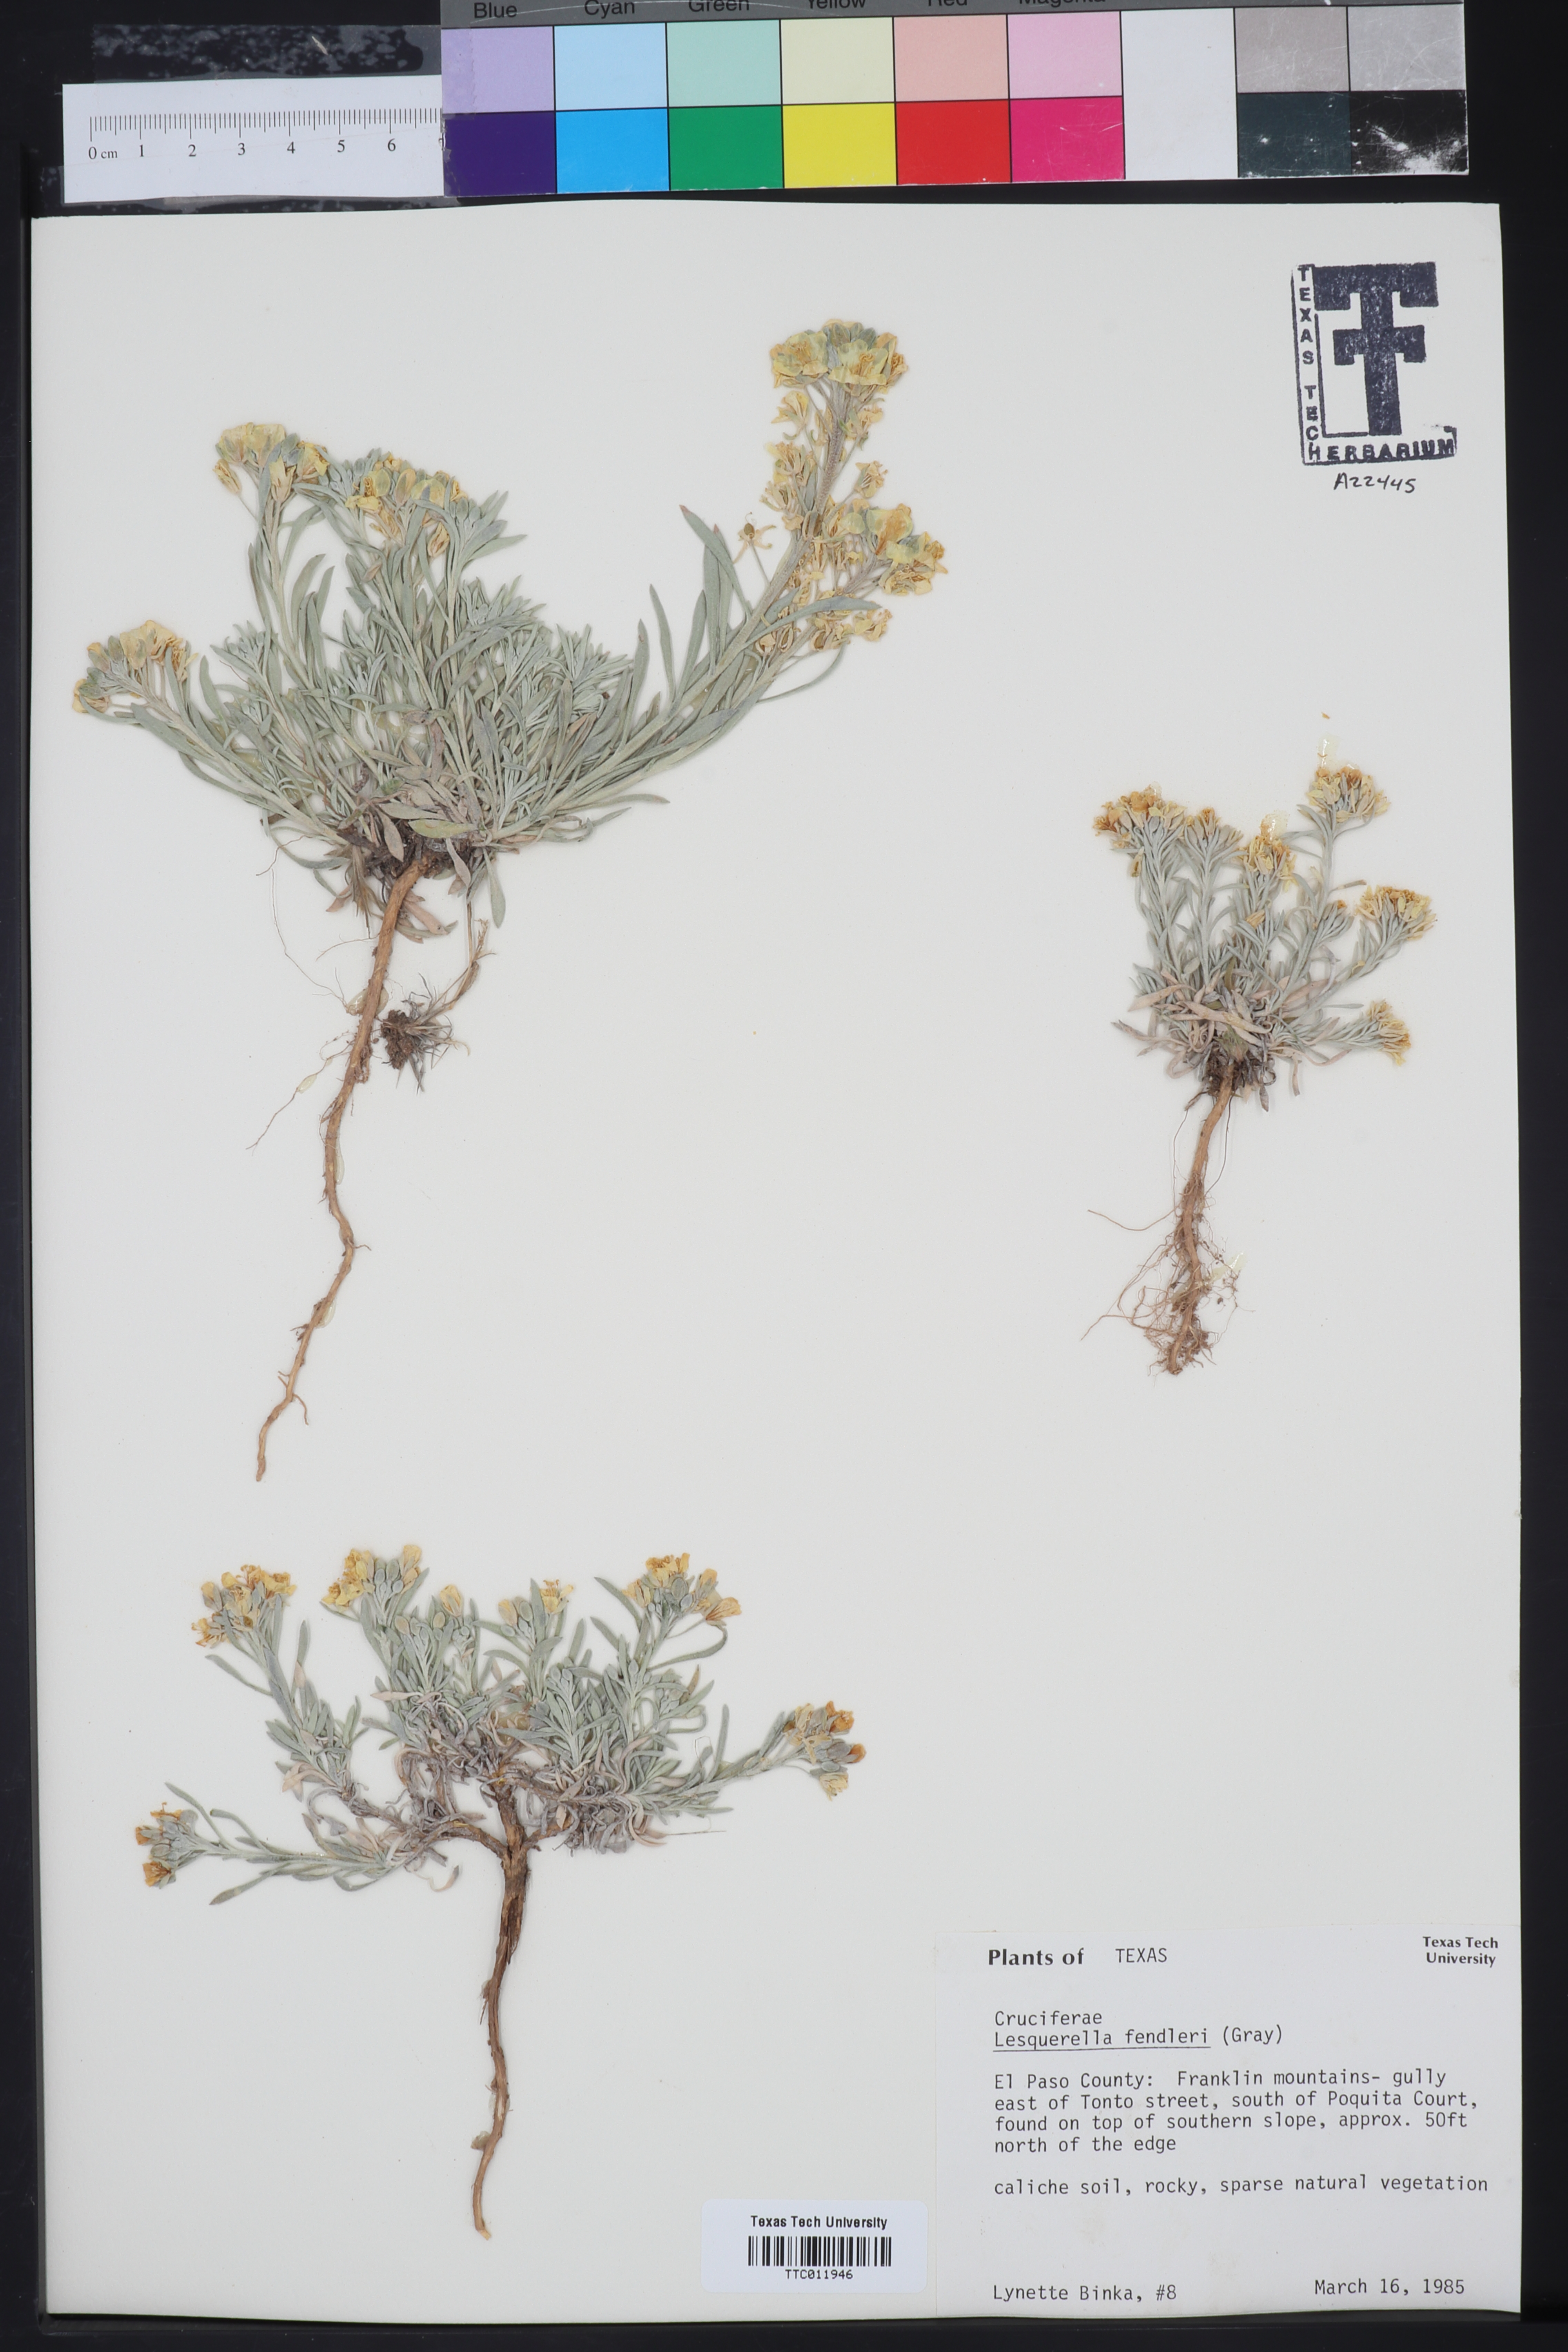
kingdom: Plantae
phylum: Tracheophyta
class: Magnoliopsida
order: Brassicales
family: Brassicaceae
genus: Physaria
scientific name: Physaria fendleri
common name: Fendler's bladderpod
